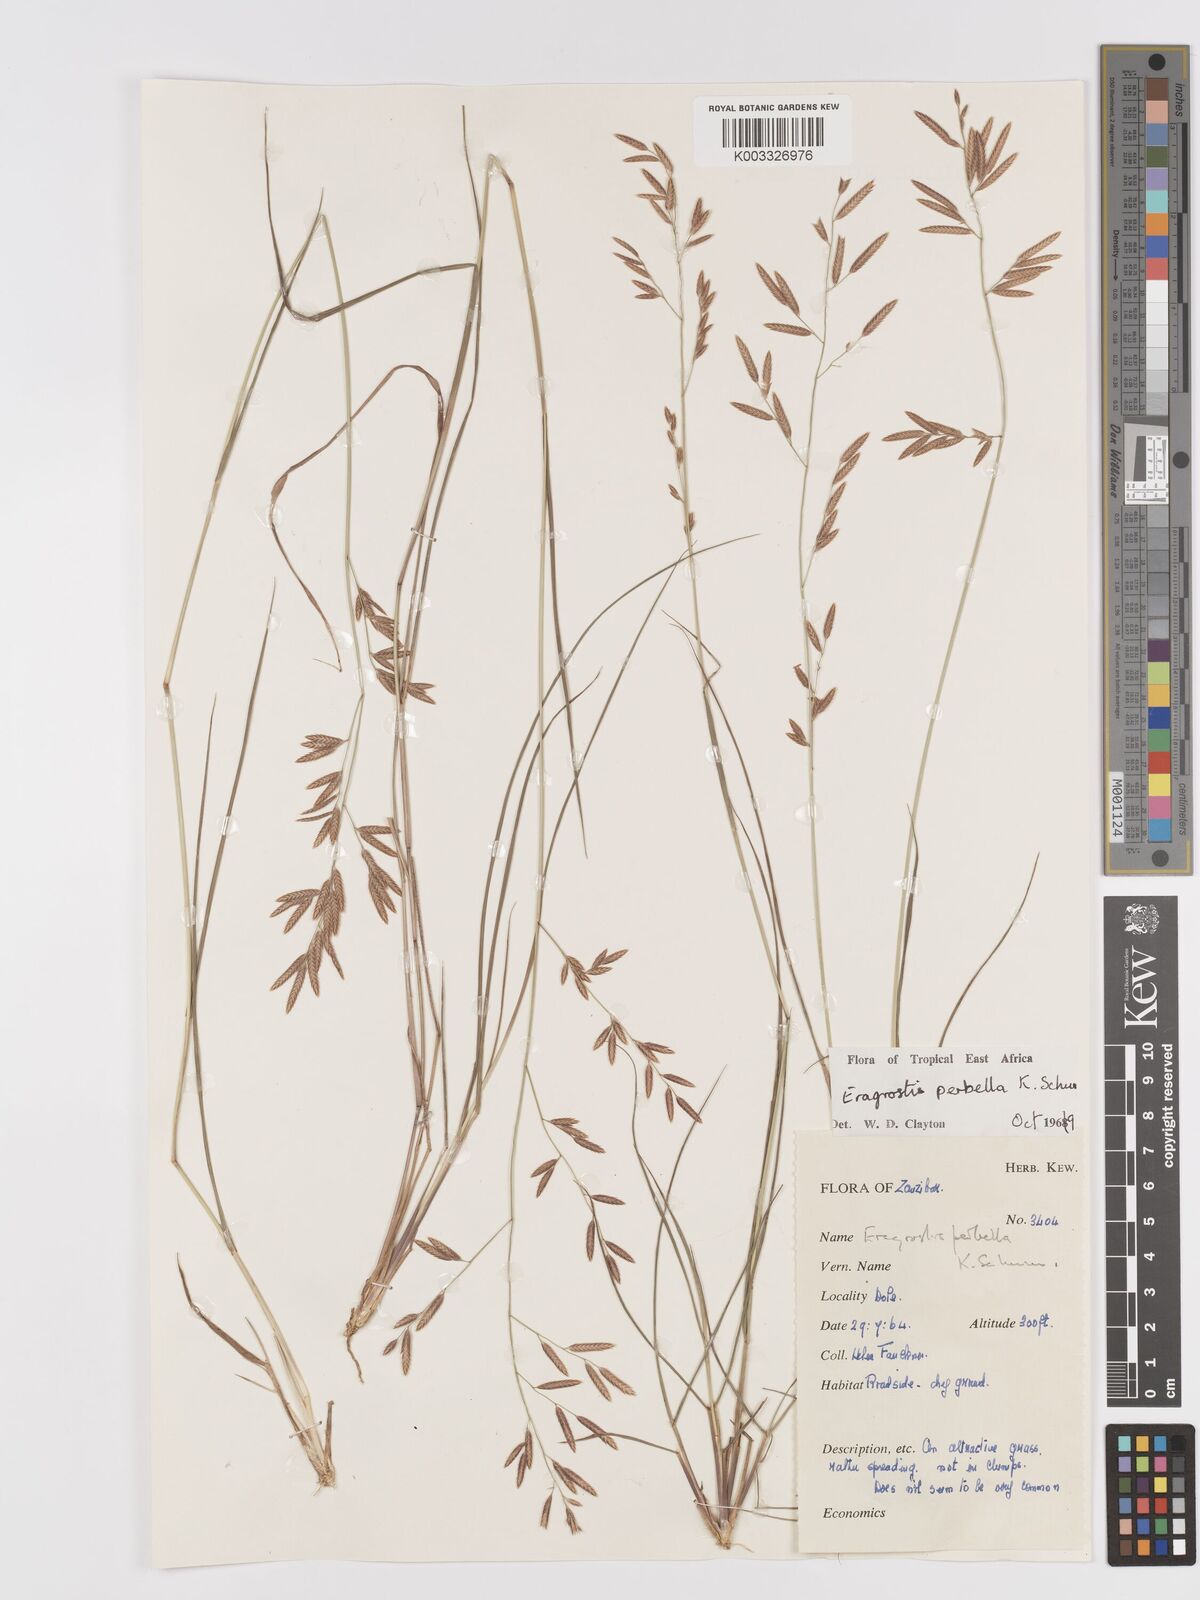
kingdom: Plantae
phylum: Tracheophyta
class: Liliopsida
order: Poales
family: Poaceae
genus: Eragrostis
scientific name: Eragrostis perbella
